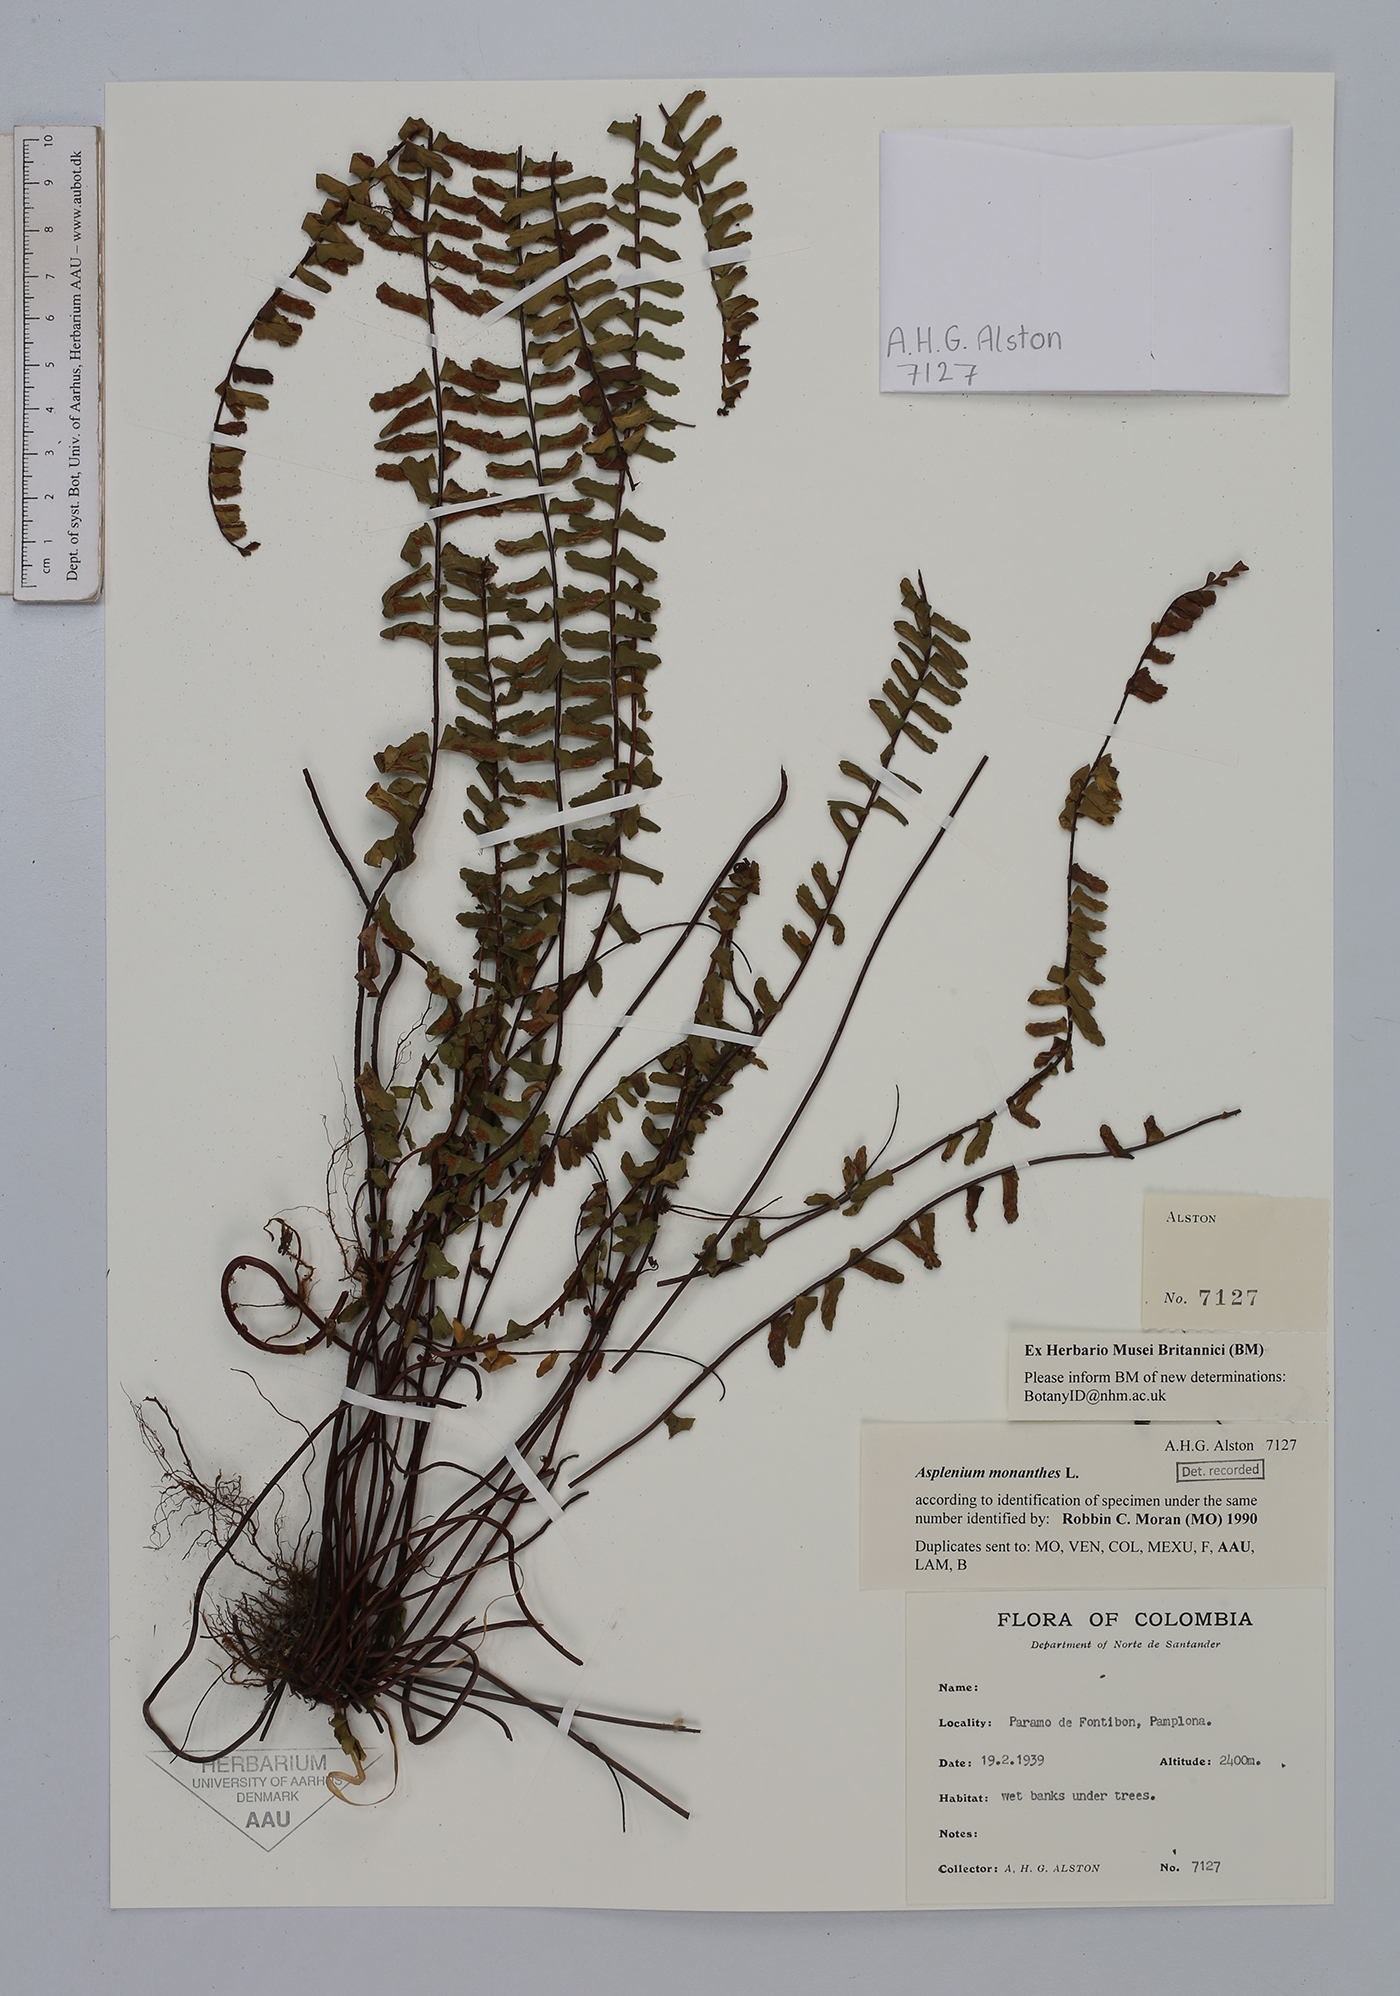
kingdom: Plantae
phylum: Tracheophyta
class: Polypodiopsida
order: Polypodiales
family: Aspleniaceae
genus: Asplenium
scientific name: Asplenium monanthes
